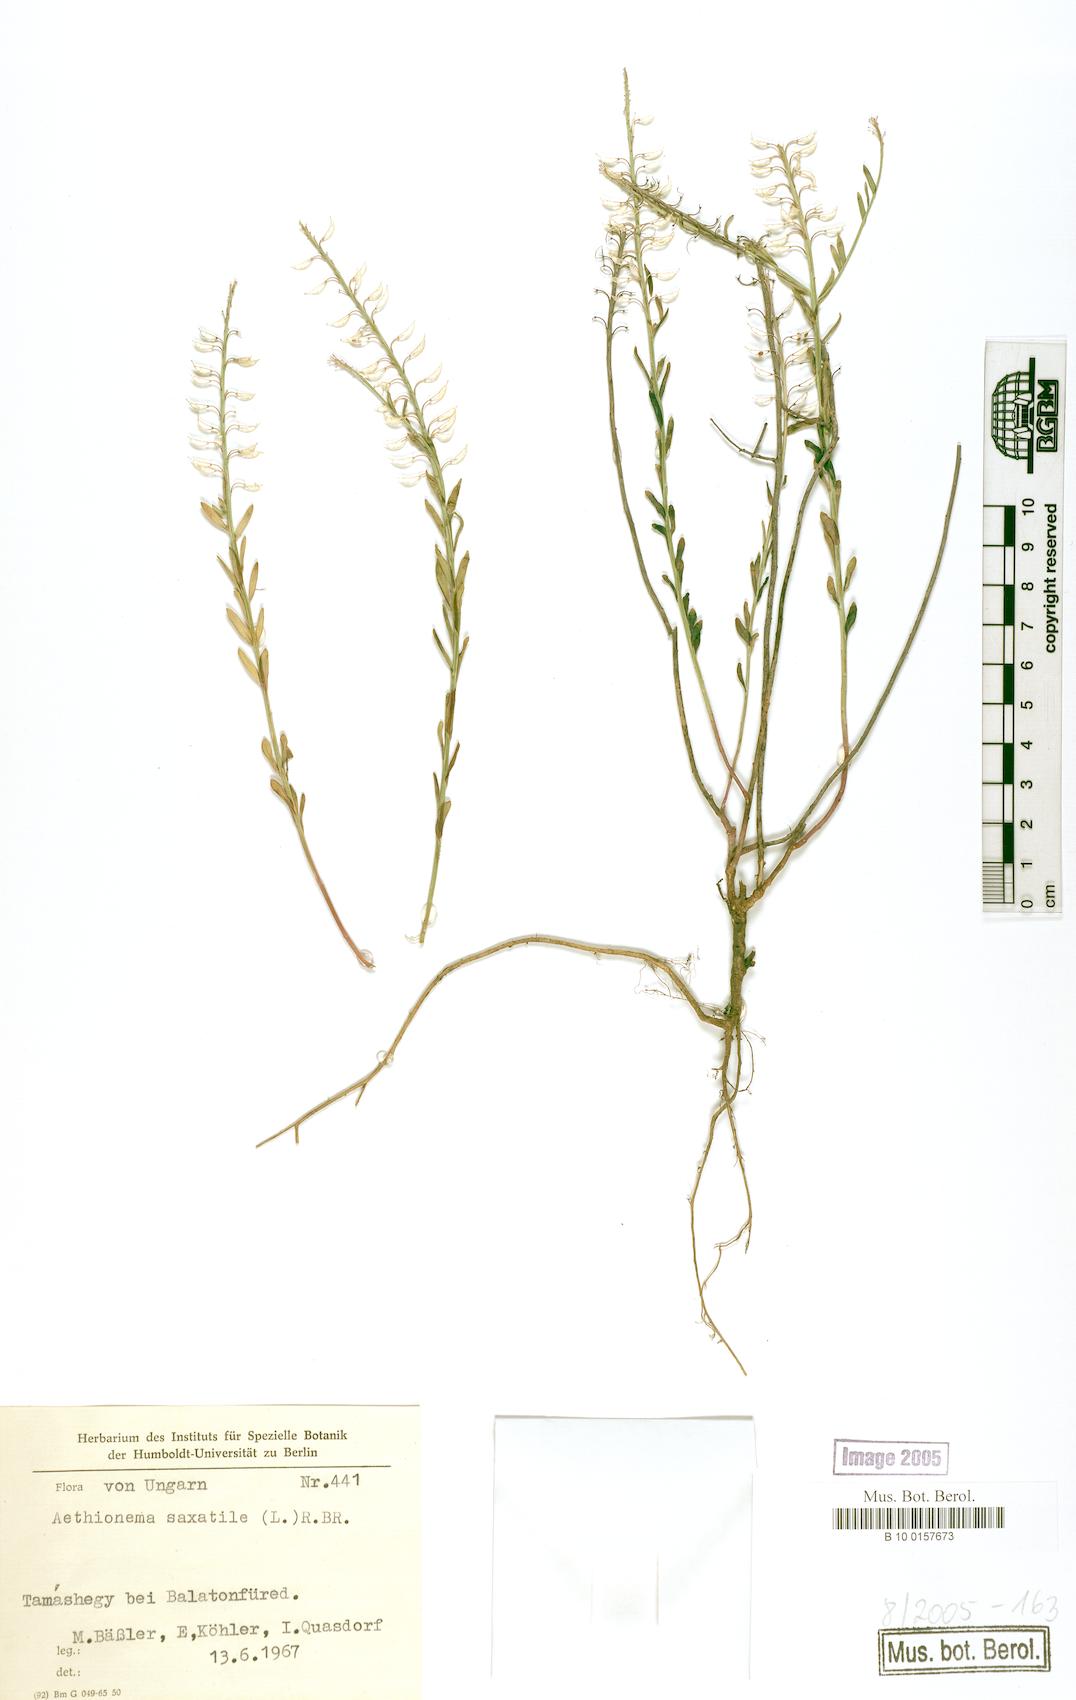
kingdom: Plantae
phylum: Tracheophyta
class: Magnoliopsida
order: Brassicales
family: Brassicaceae
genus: Aethionema
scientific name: Aethionema saxatile
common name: Burnt candytuft
